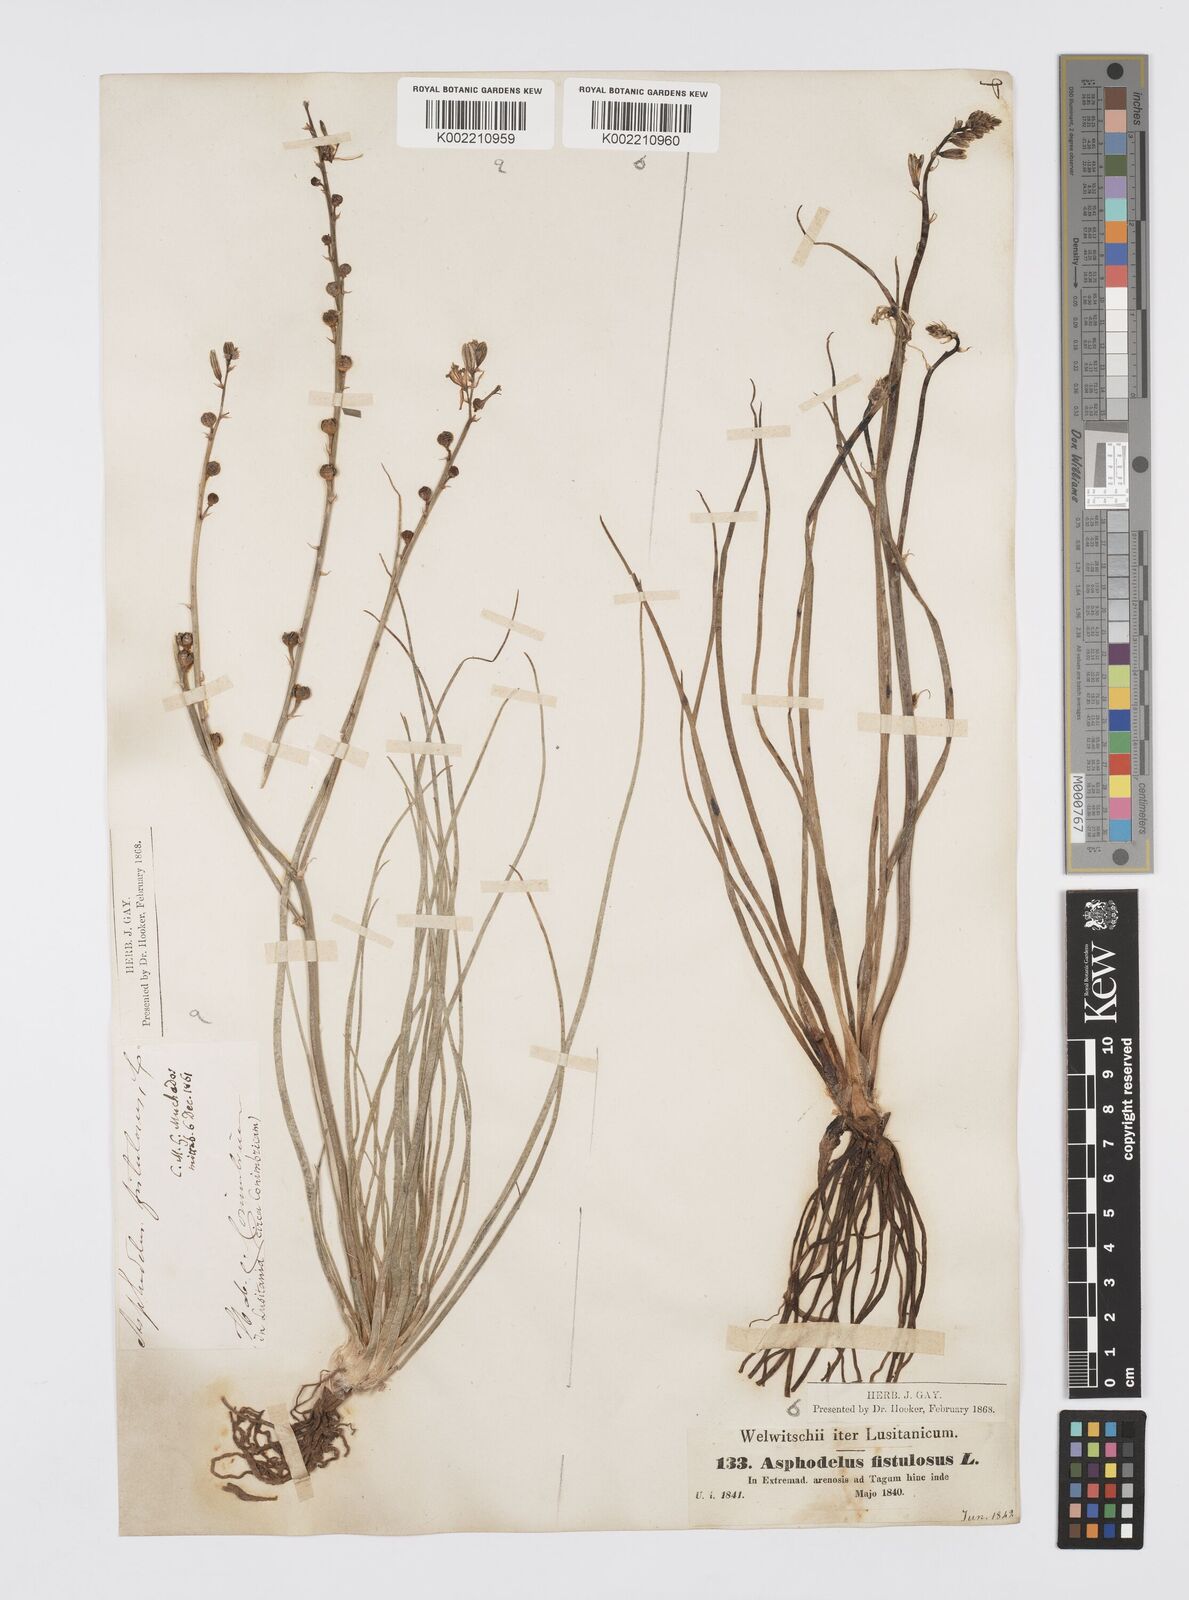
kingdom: Plantae
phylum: Tracheophyta
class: Liliopsida
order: Asparagales
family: Asphodelaceae
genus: Asphodelus
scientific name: Asphodelus fistulosus
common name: Onionweed
